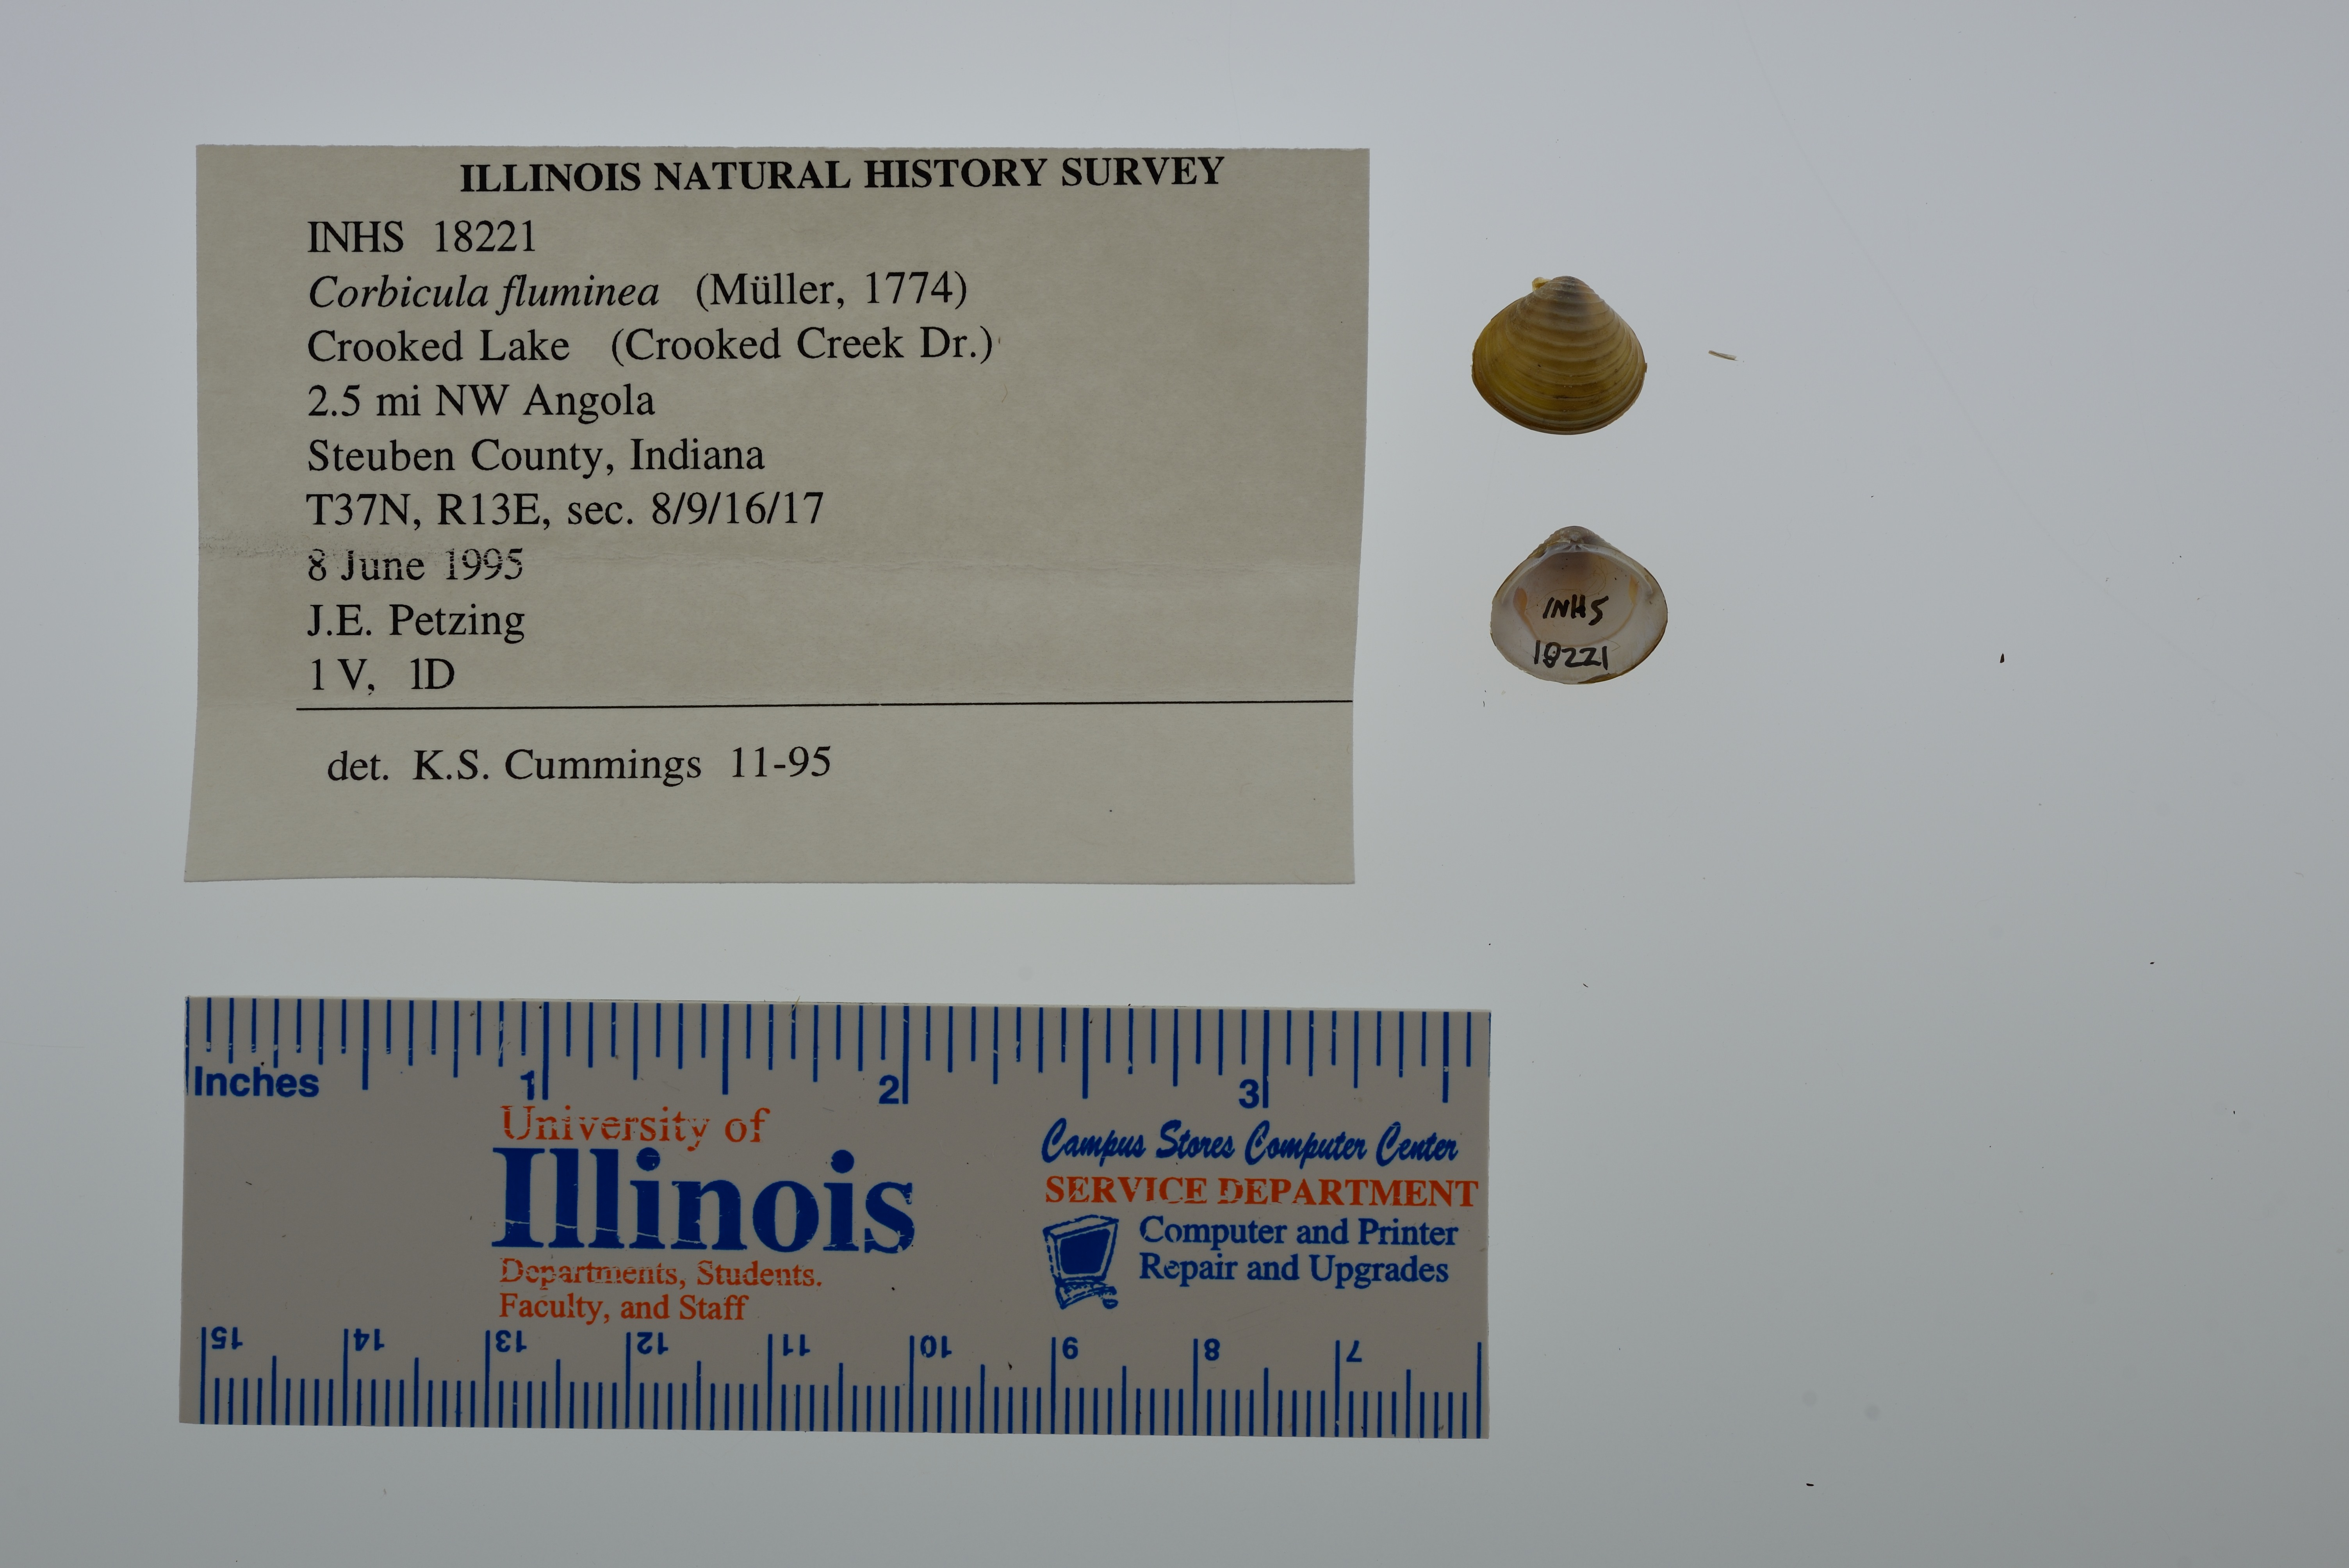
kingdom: Animalia
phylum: Mollusca
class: Bivalvia
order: Venerida
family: Cyrenidae
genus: Corbicula
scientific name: Corbicula fluminea
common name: Asian clam
